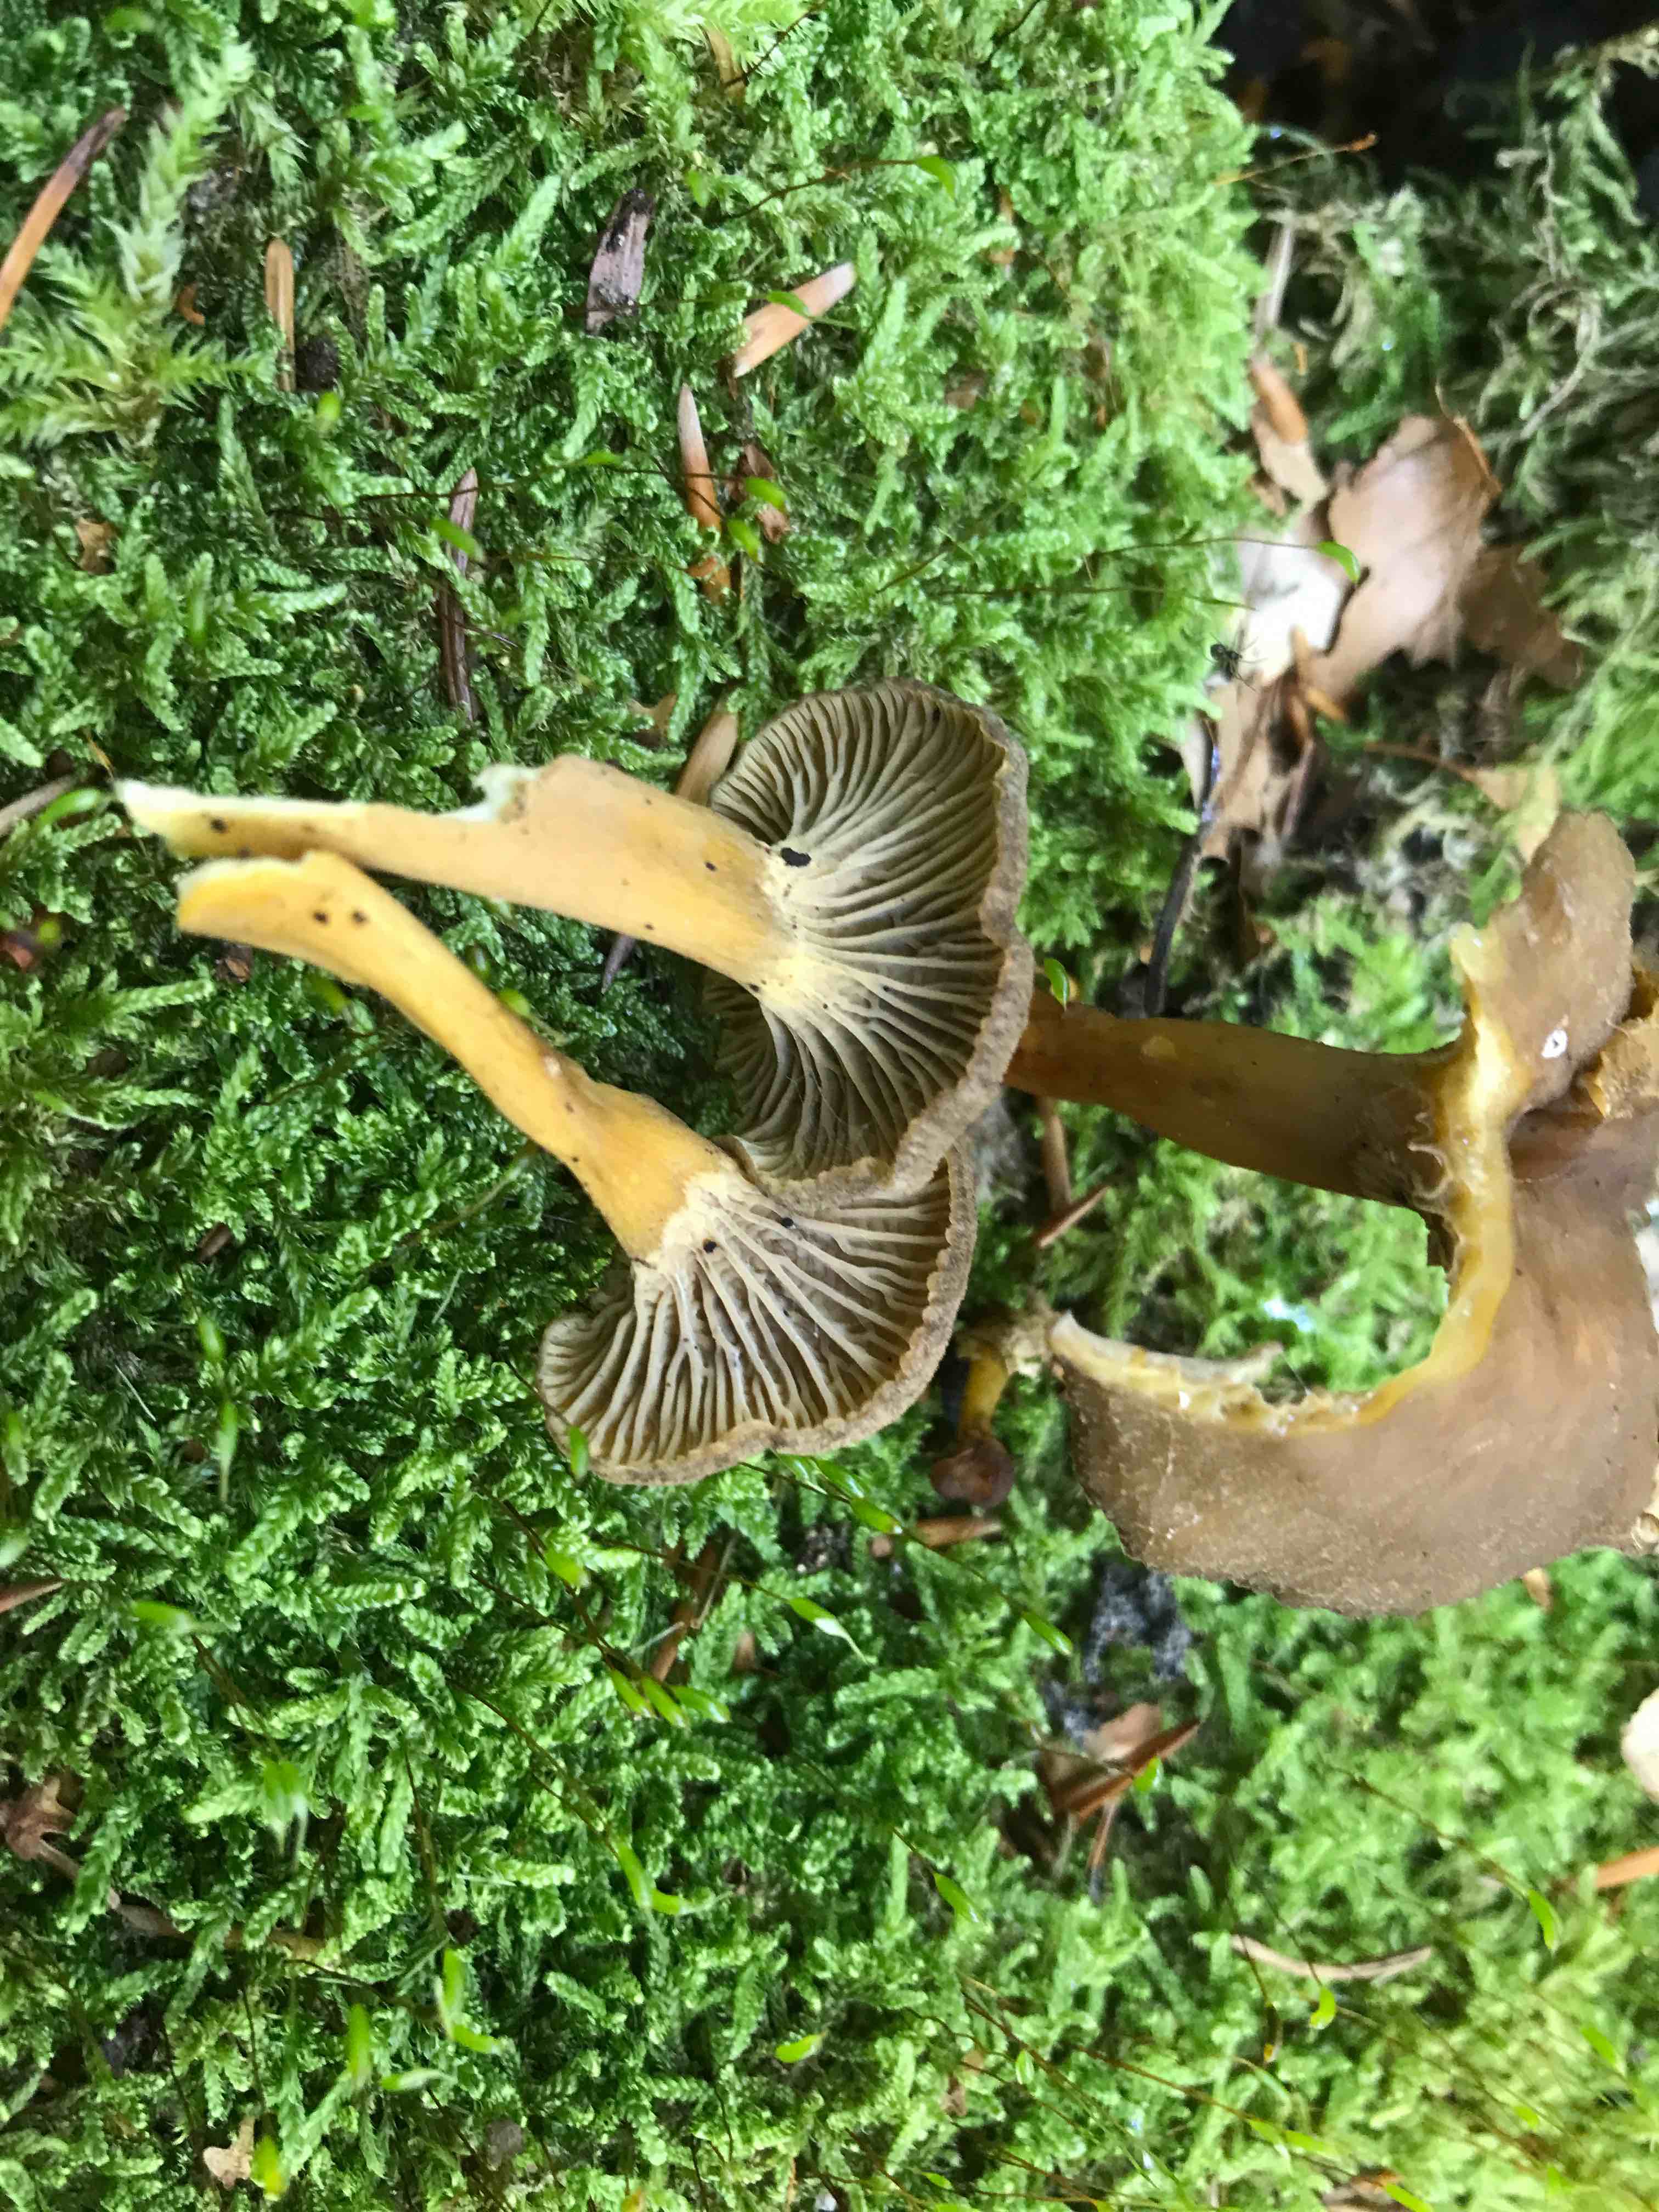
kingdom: Fungi
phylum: Basidiomycota
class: Agaricomycetes
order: Cantharellales
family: Hydnaceae
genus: Craterellus
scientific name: Craterellus tubaeformis
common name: tragt-kantarel
